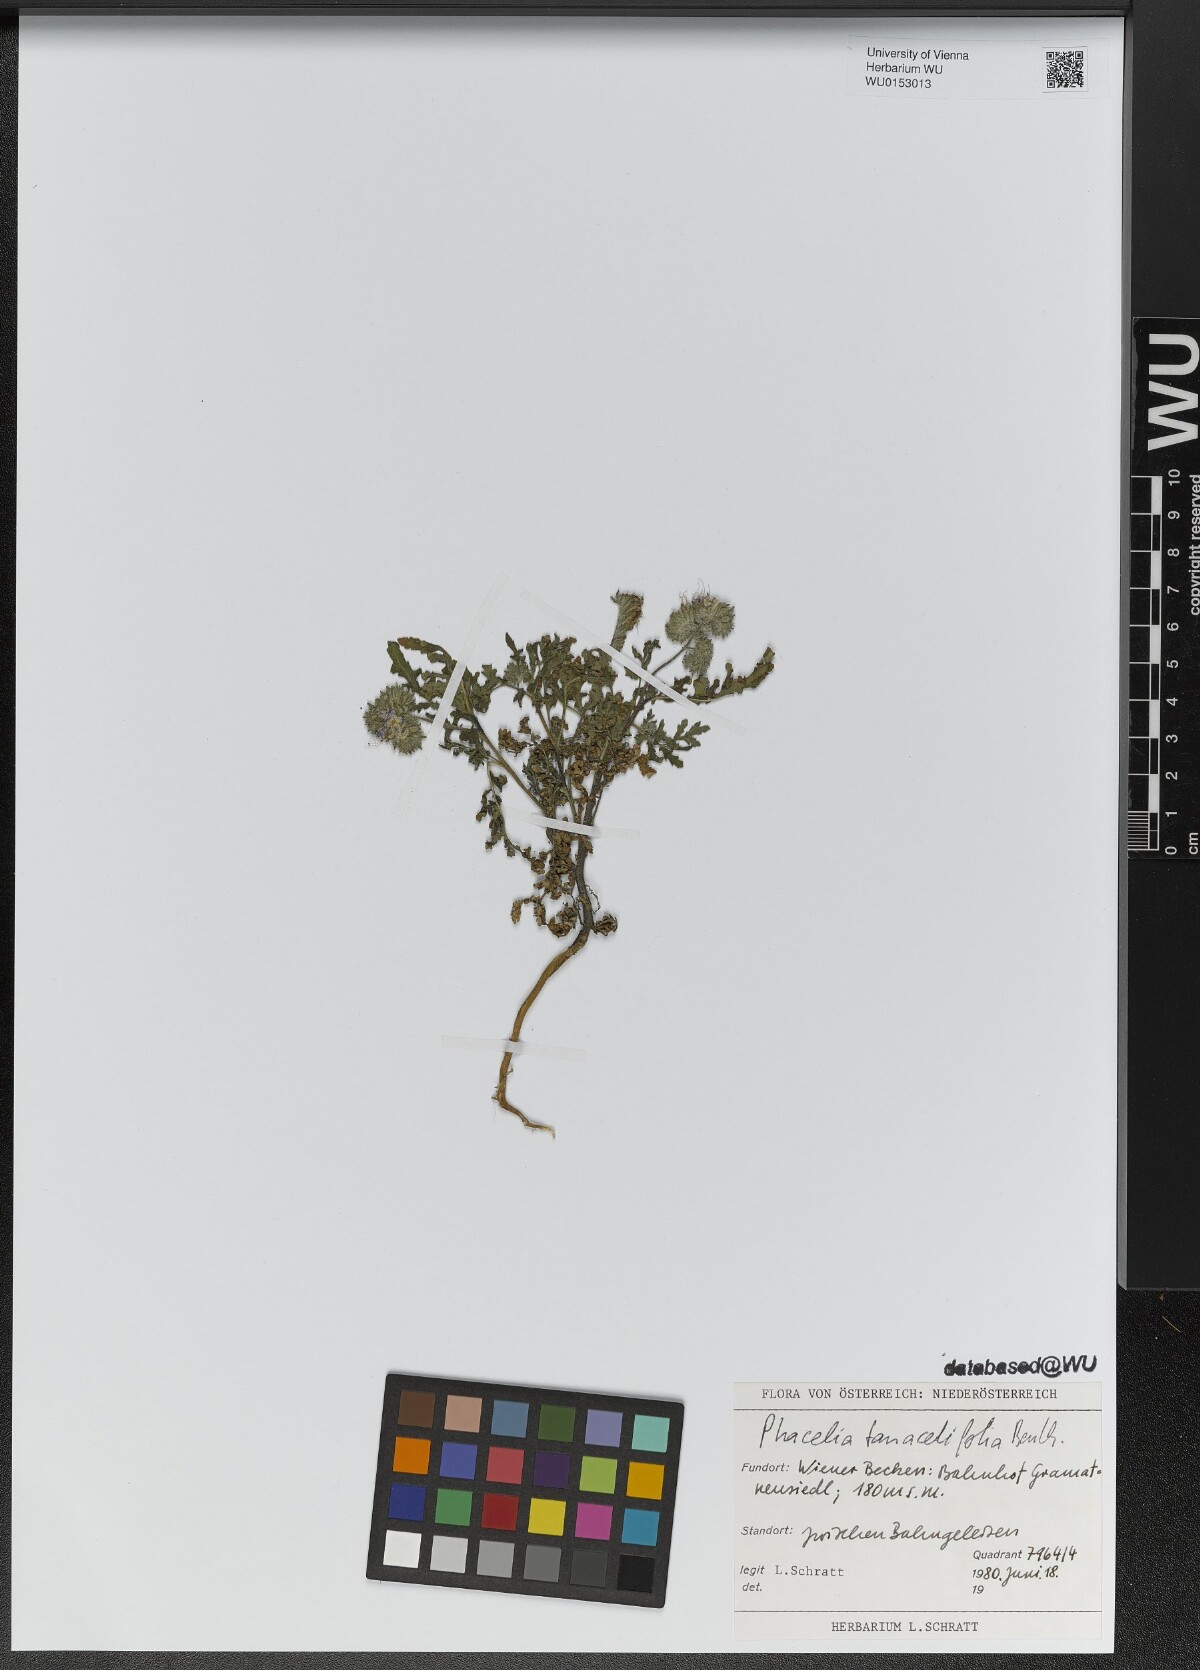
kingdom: Plantae
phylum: Tracheophyta
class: Magnoliopsida
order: Boraginales
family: Hydrophyllaceae
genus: Phacelia
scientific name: Phacelia tanacetifolia
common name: Phacelia
